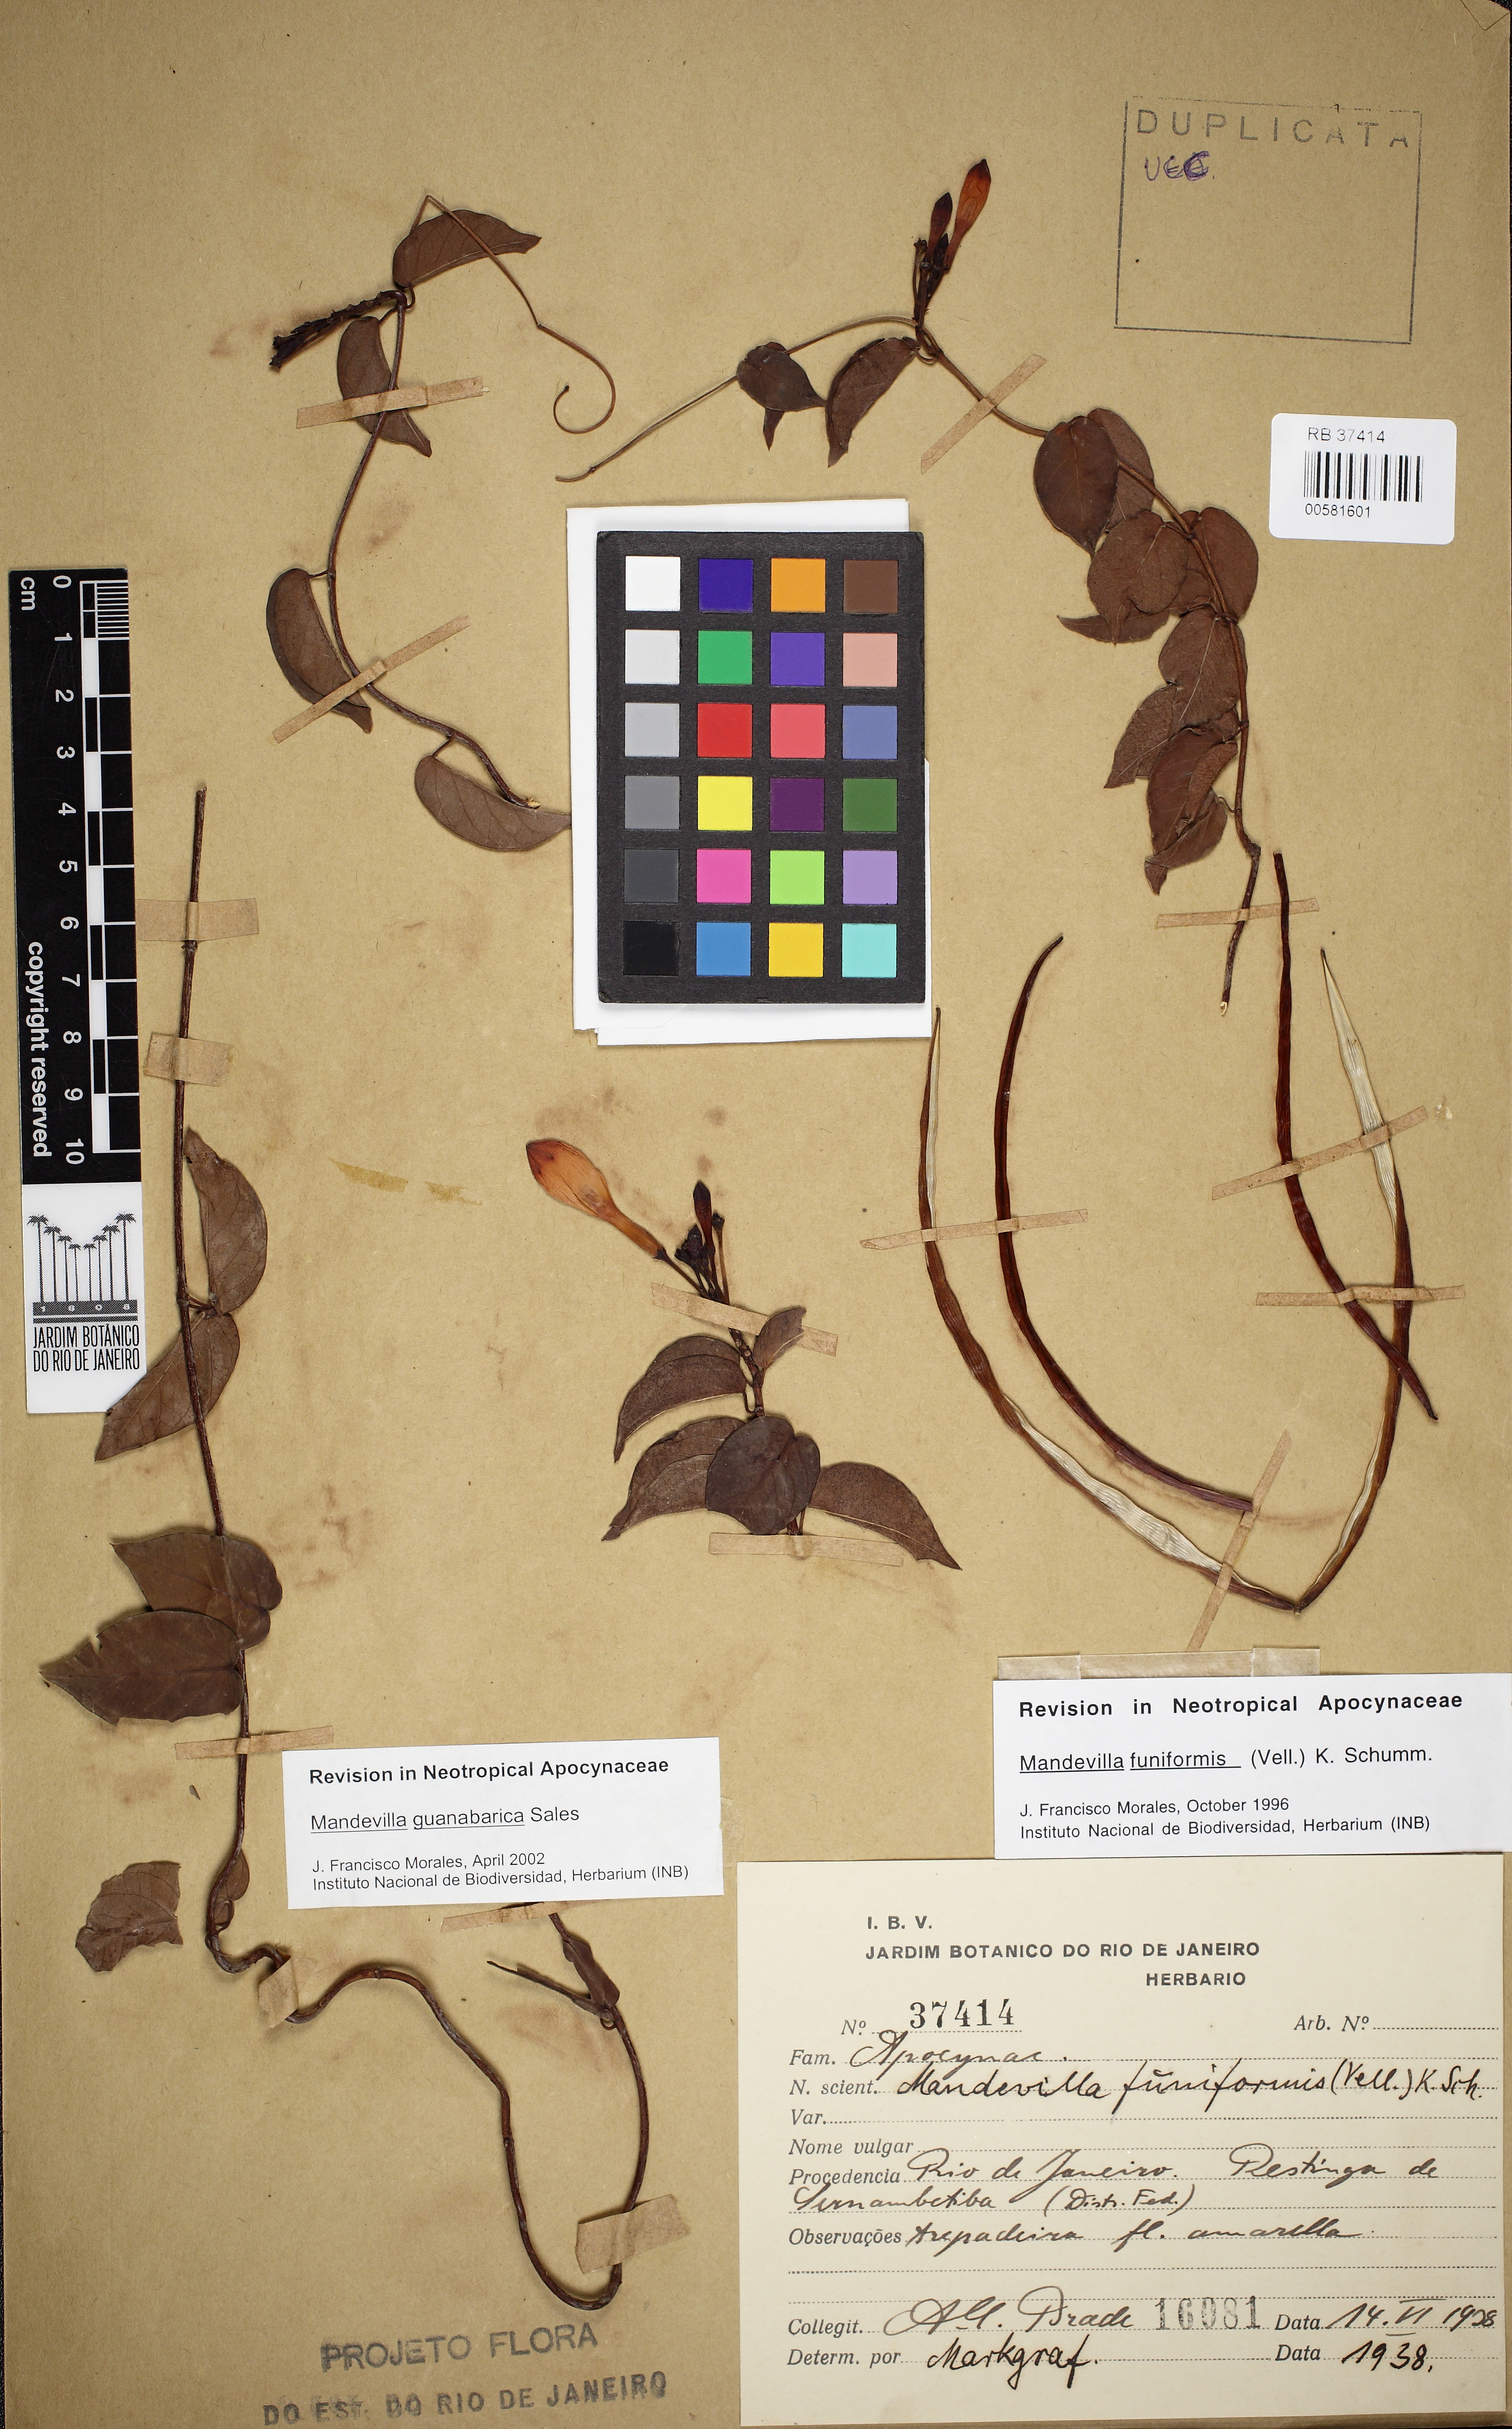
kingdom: Plantae
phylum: Tracheophyta
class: Magnoliopsida
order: Gentianales
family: Apocynaceae
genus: Mandevilla
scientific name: Mandevilla guanabarica
